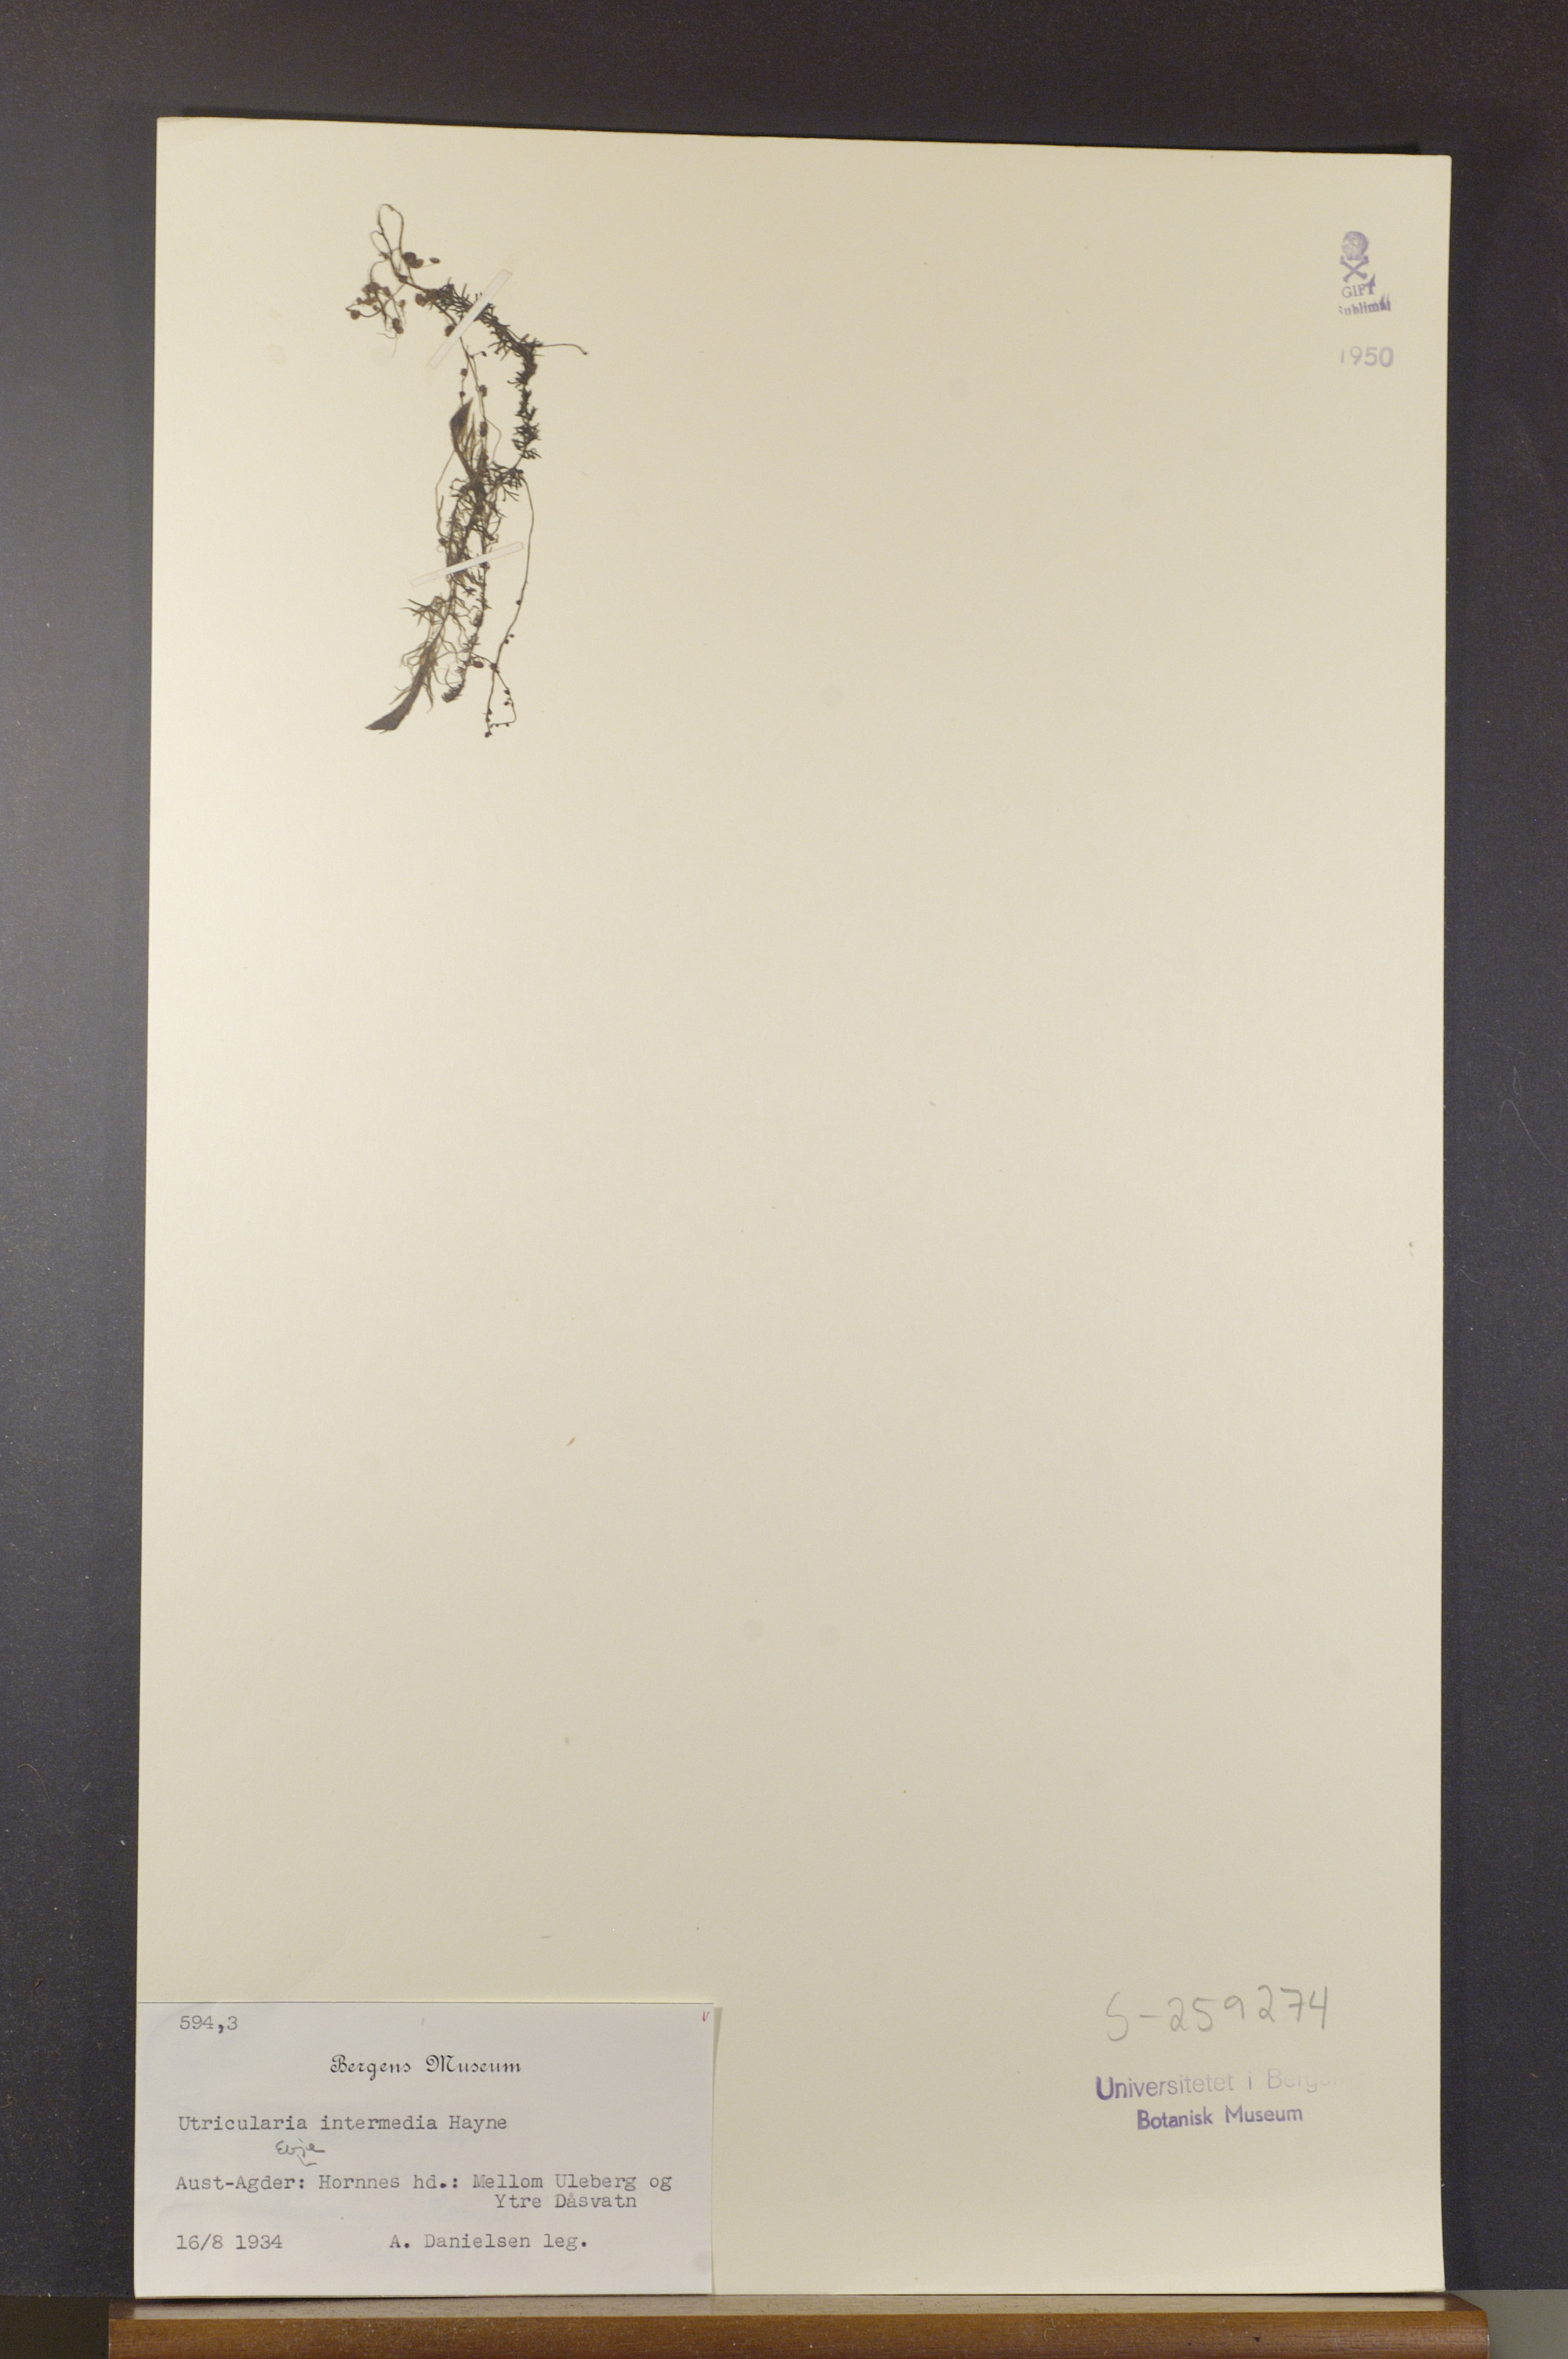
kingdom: Plantae
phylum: Tracheophyta
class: Magnoliopsida
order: Lamiales
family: Lentibulariaceae
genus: Utricularia
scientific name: Utricularia intermedia
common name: Intermediate bladderwort
